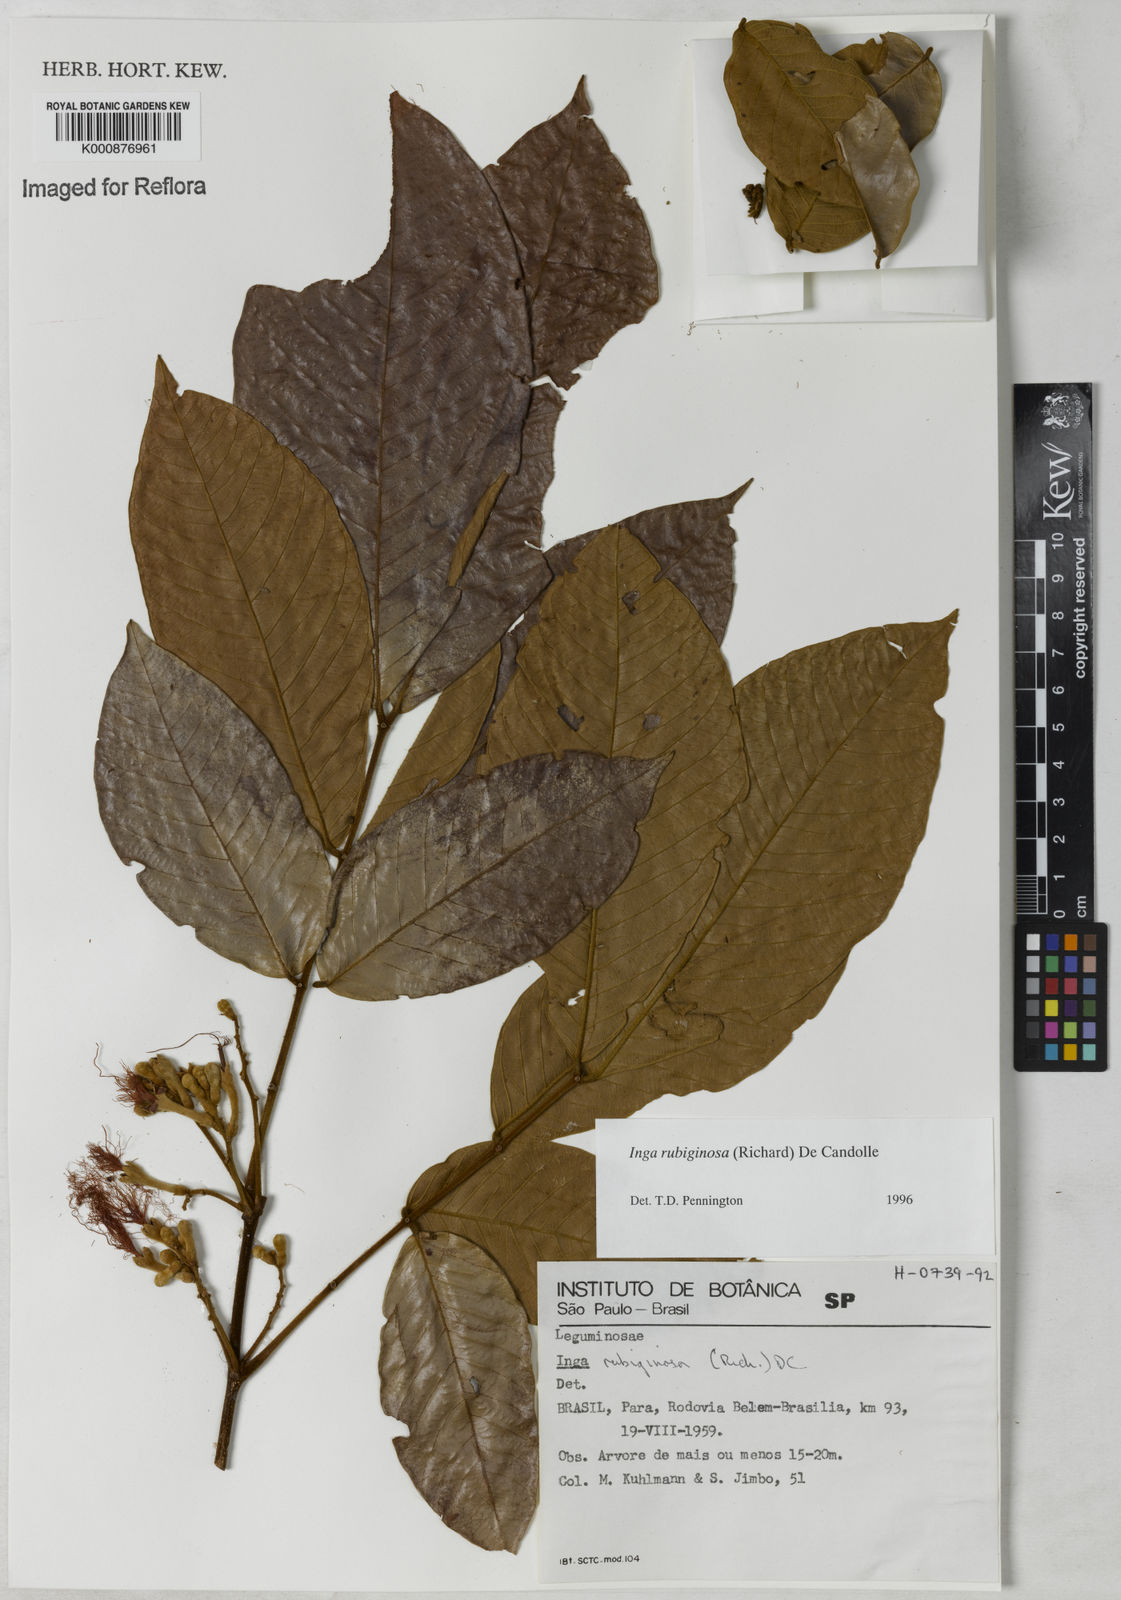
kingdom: Plantae
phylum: Tracheophyta
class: Magnoliopsida
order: Fabales
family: Fabaceae
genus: Inga
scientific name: Inga rubiginosa
